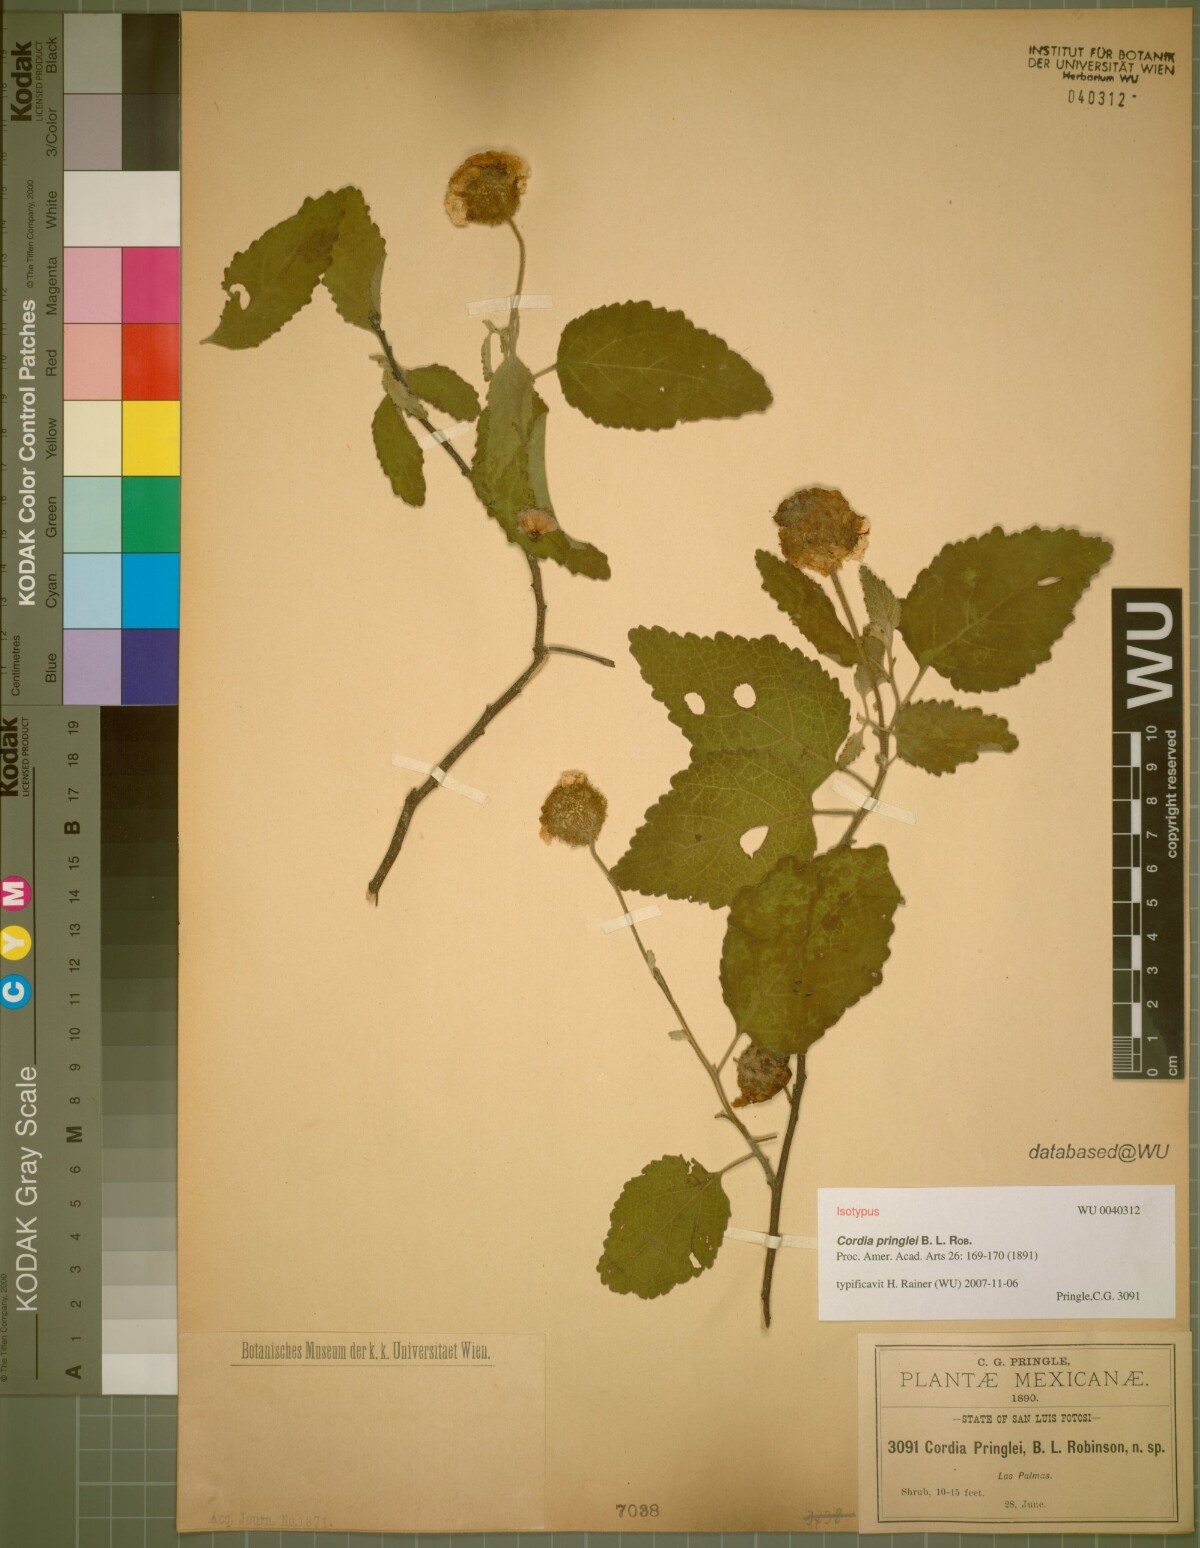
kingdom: Plantae
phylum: Tracheophyta
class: Magnoliopsida
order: Boraginales
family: Cordiaceae
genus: Varronia
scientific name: Varronia macrocephala
